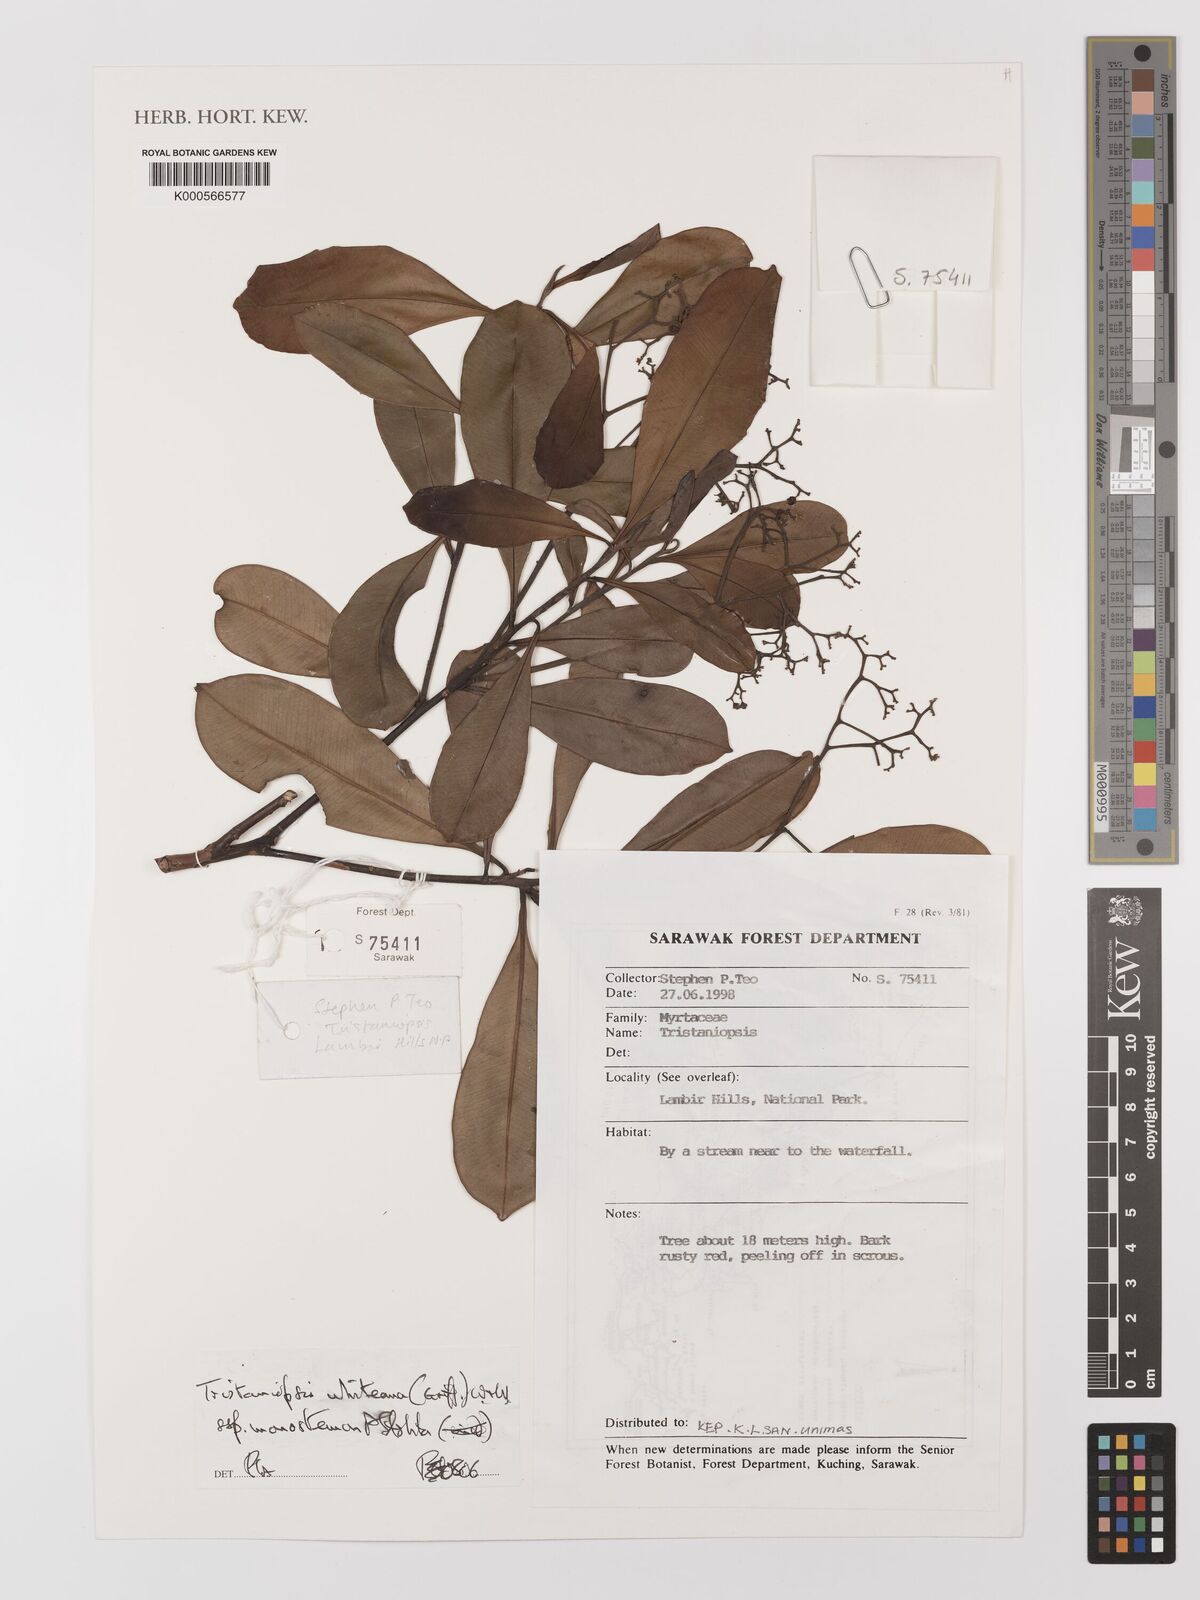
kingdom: Plantae
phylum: Tracheophyta
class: Magnoliopsida
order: Myrtales
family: Myrtaceae
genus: Tristaniopsis
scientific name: Tristaniopsis whiteana
